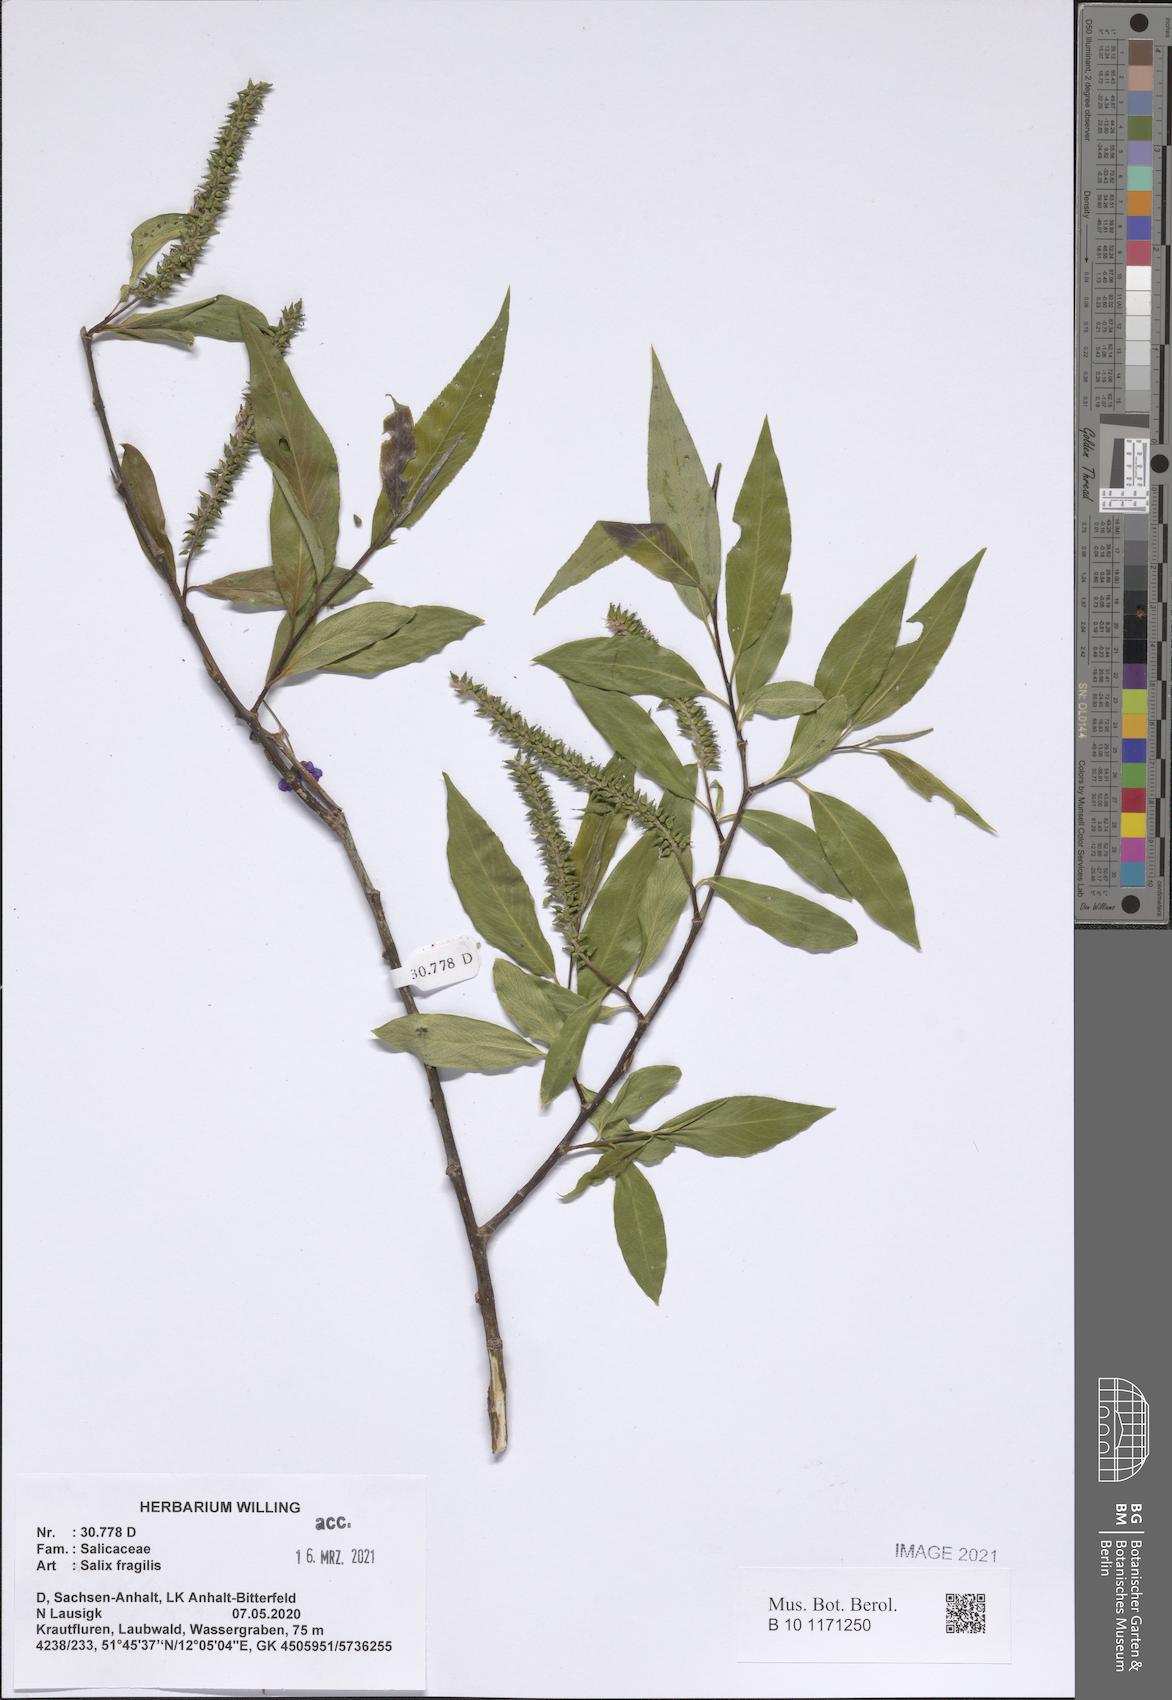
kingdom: Plantae
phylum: Tracheophyta
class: Magnoliopsida
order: Malpighiales
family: Salicaceae
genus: Salix
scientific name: Salix fragilis
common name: Crack willow
